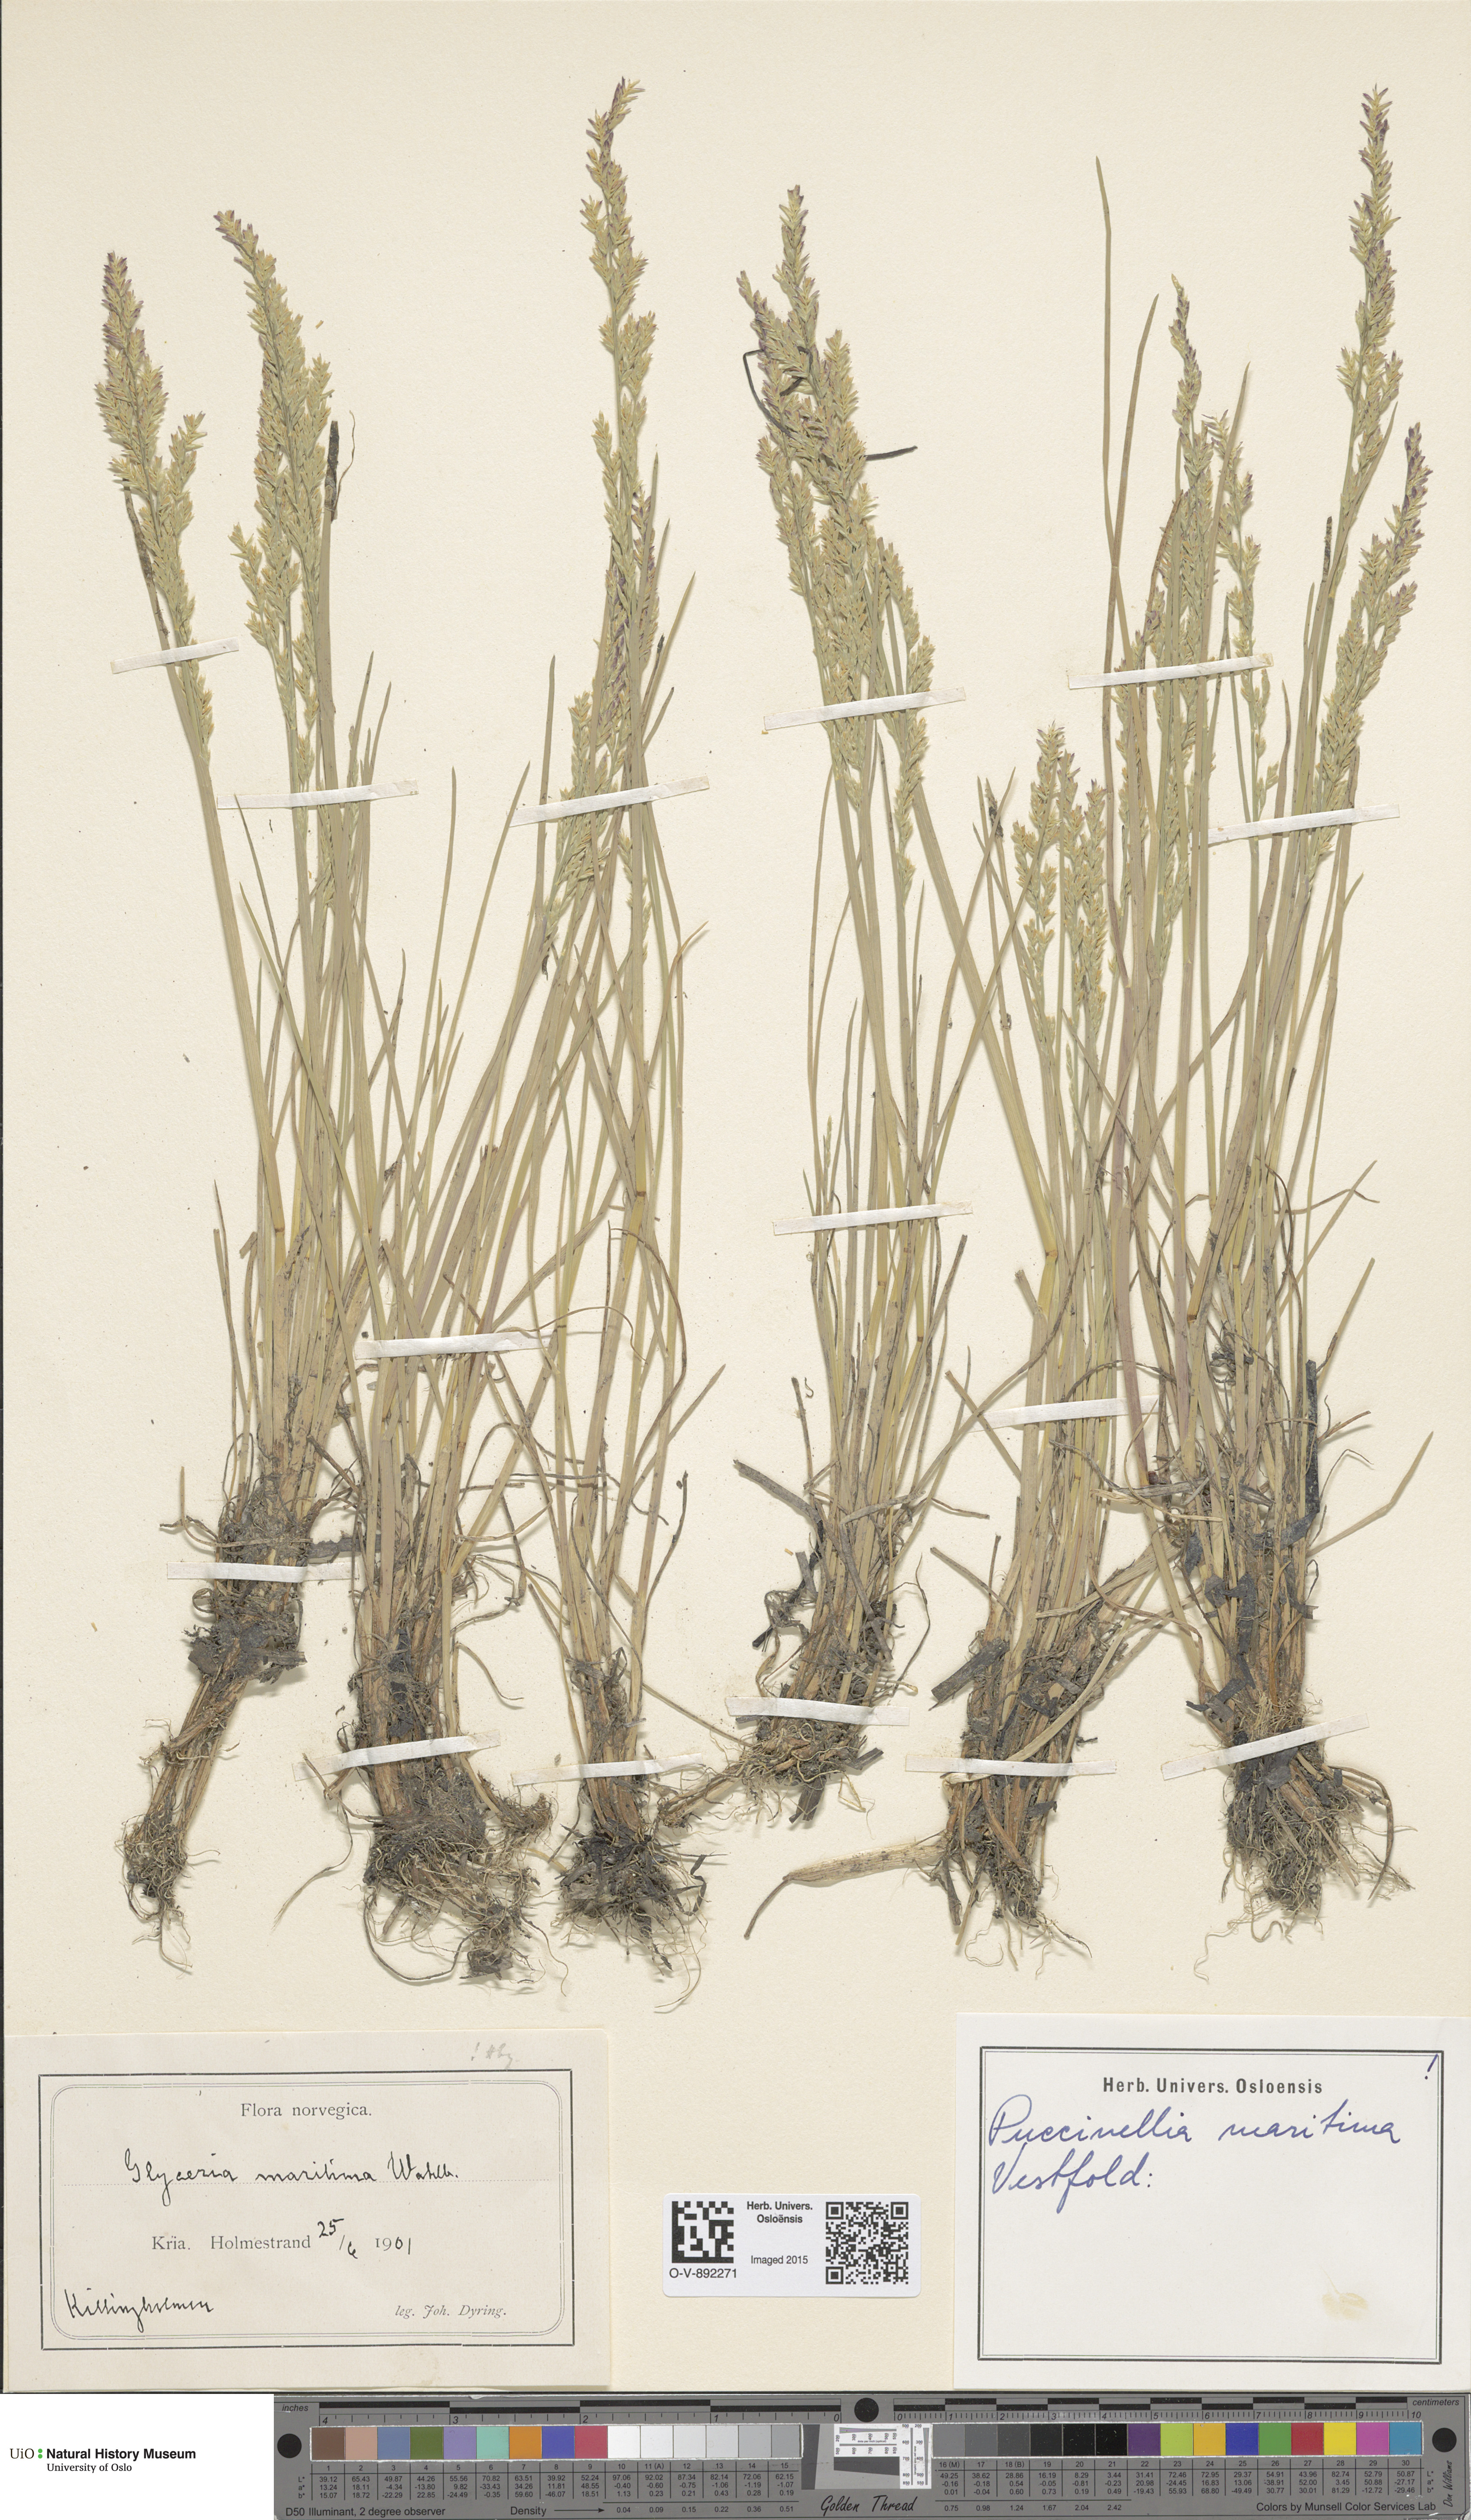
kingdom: Plantae
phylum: Tracheophyta
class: Liliopsida
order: Poales
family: Poaceae
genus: Puccinellia
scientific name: Puccinellia maritima
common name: Common saltmarsh grass
